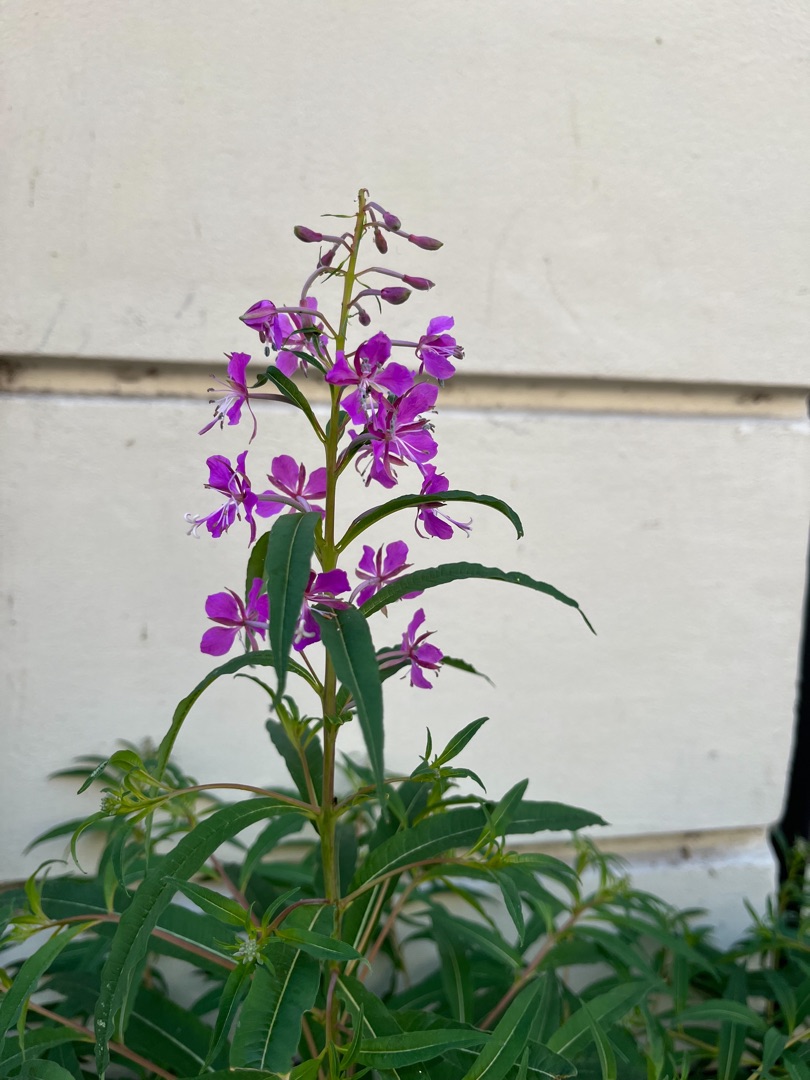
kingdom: Plantae
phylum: Tracheophyta
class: Magnoliopsida
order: Myrtales
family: Onagraceae
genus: Chamaenerion
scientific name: Chamaenerion angustifolium
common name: Gederams
